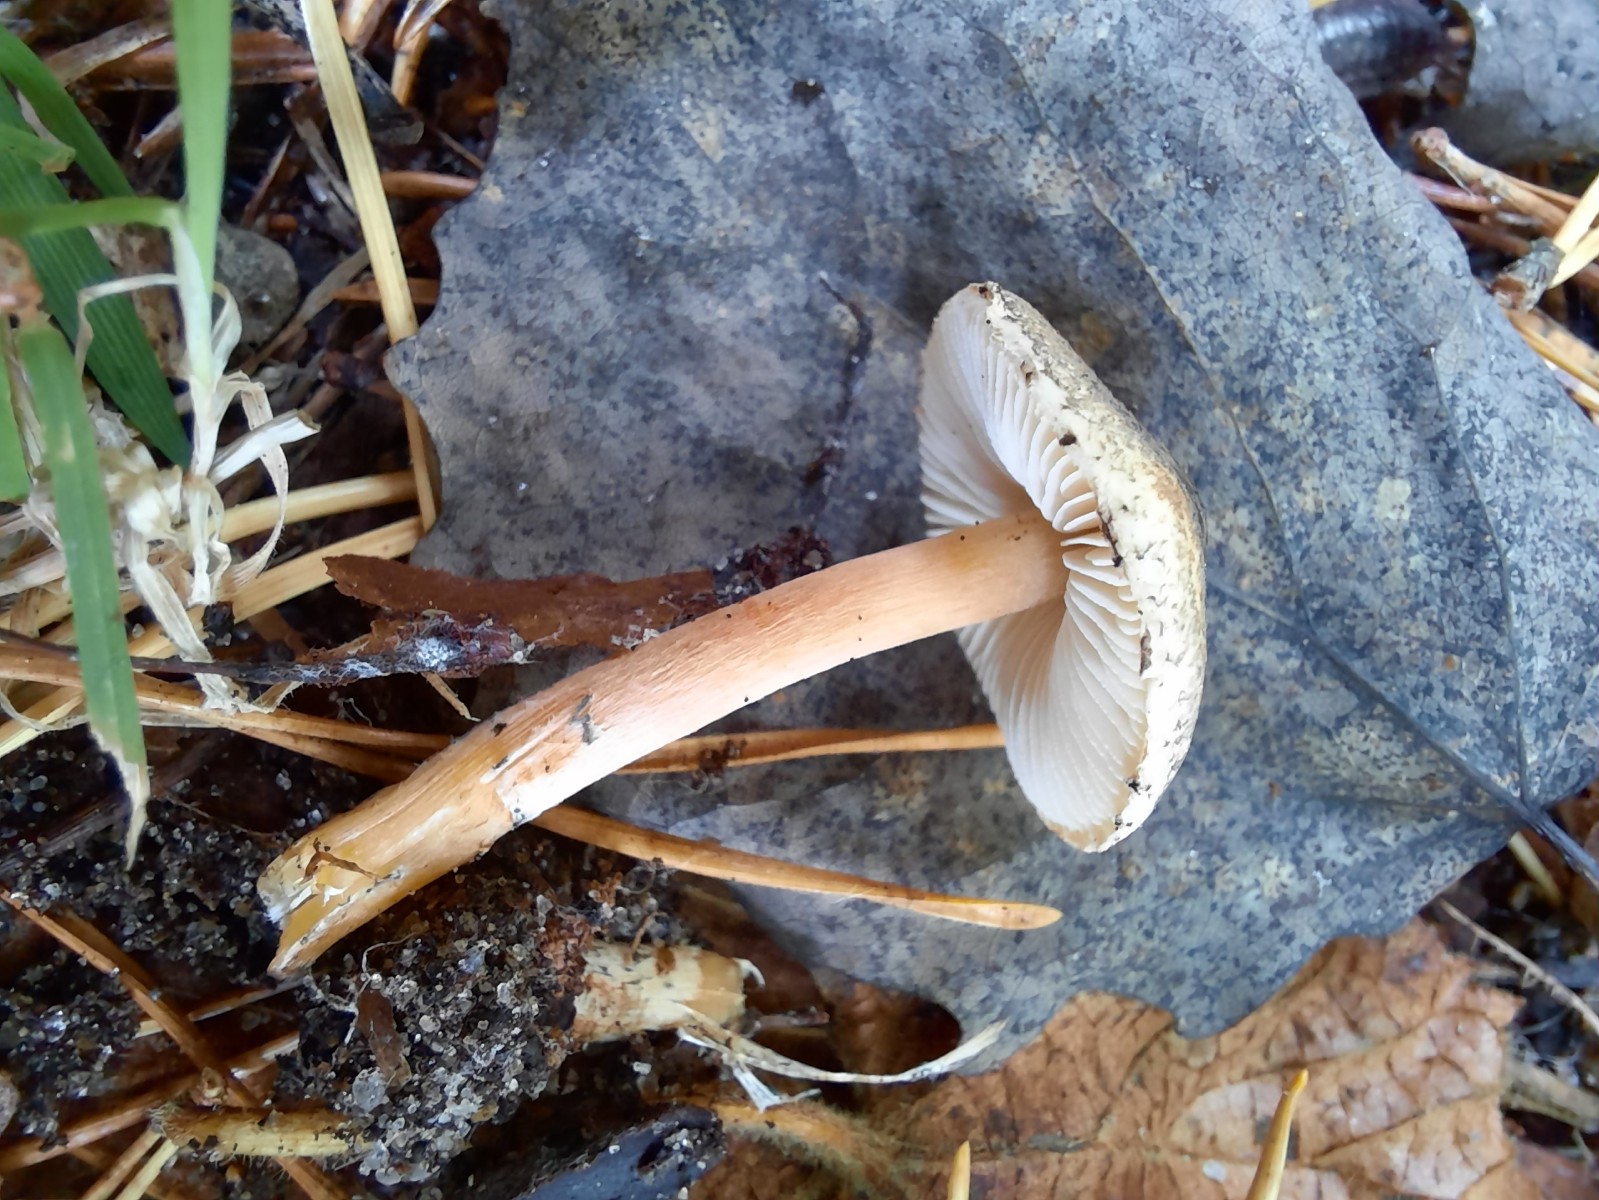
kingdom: Fungi
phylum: Basidiomycota
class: Agaricomycetes
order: Agaricales
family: Agaricaceae
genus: Lepiota
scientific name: Lepiota grangei
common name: grønskællet parasolhat
